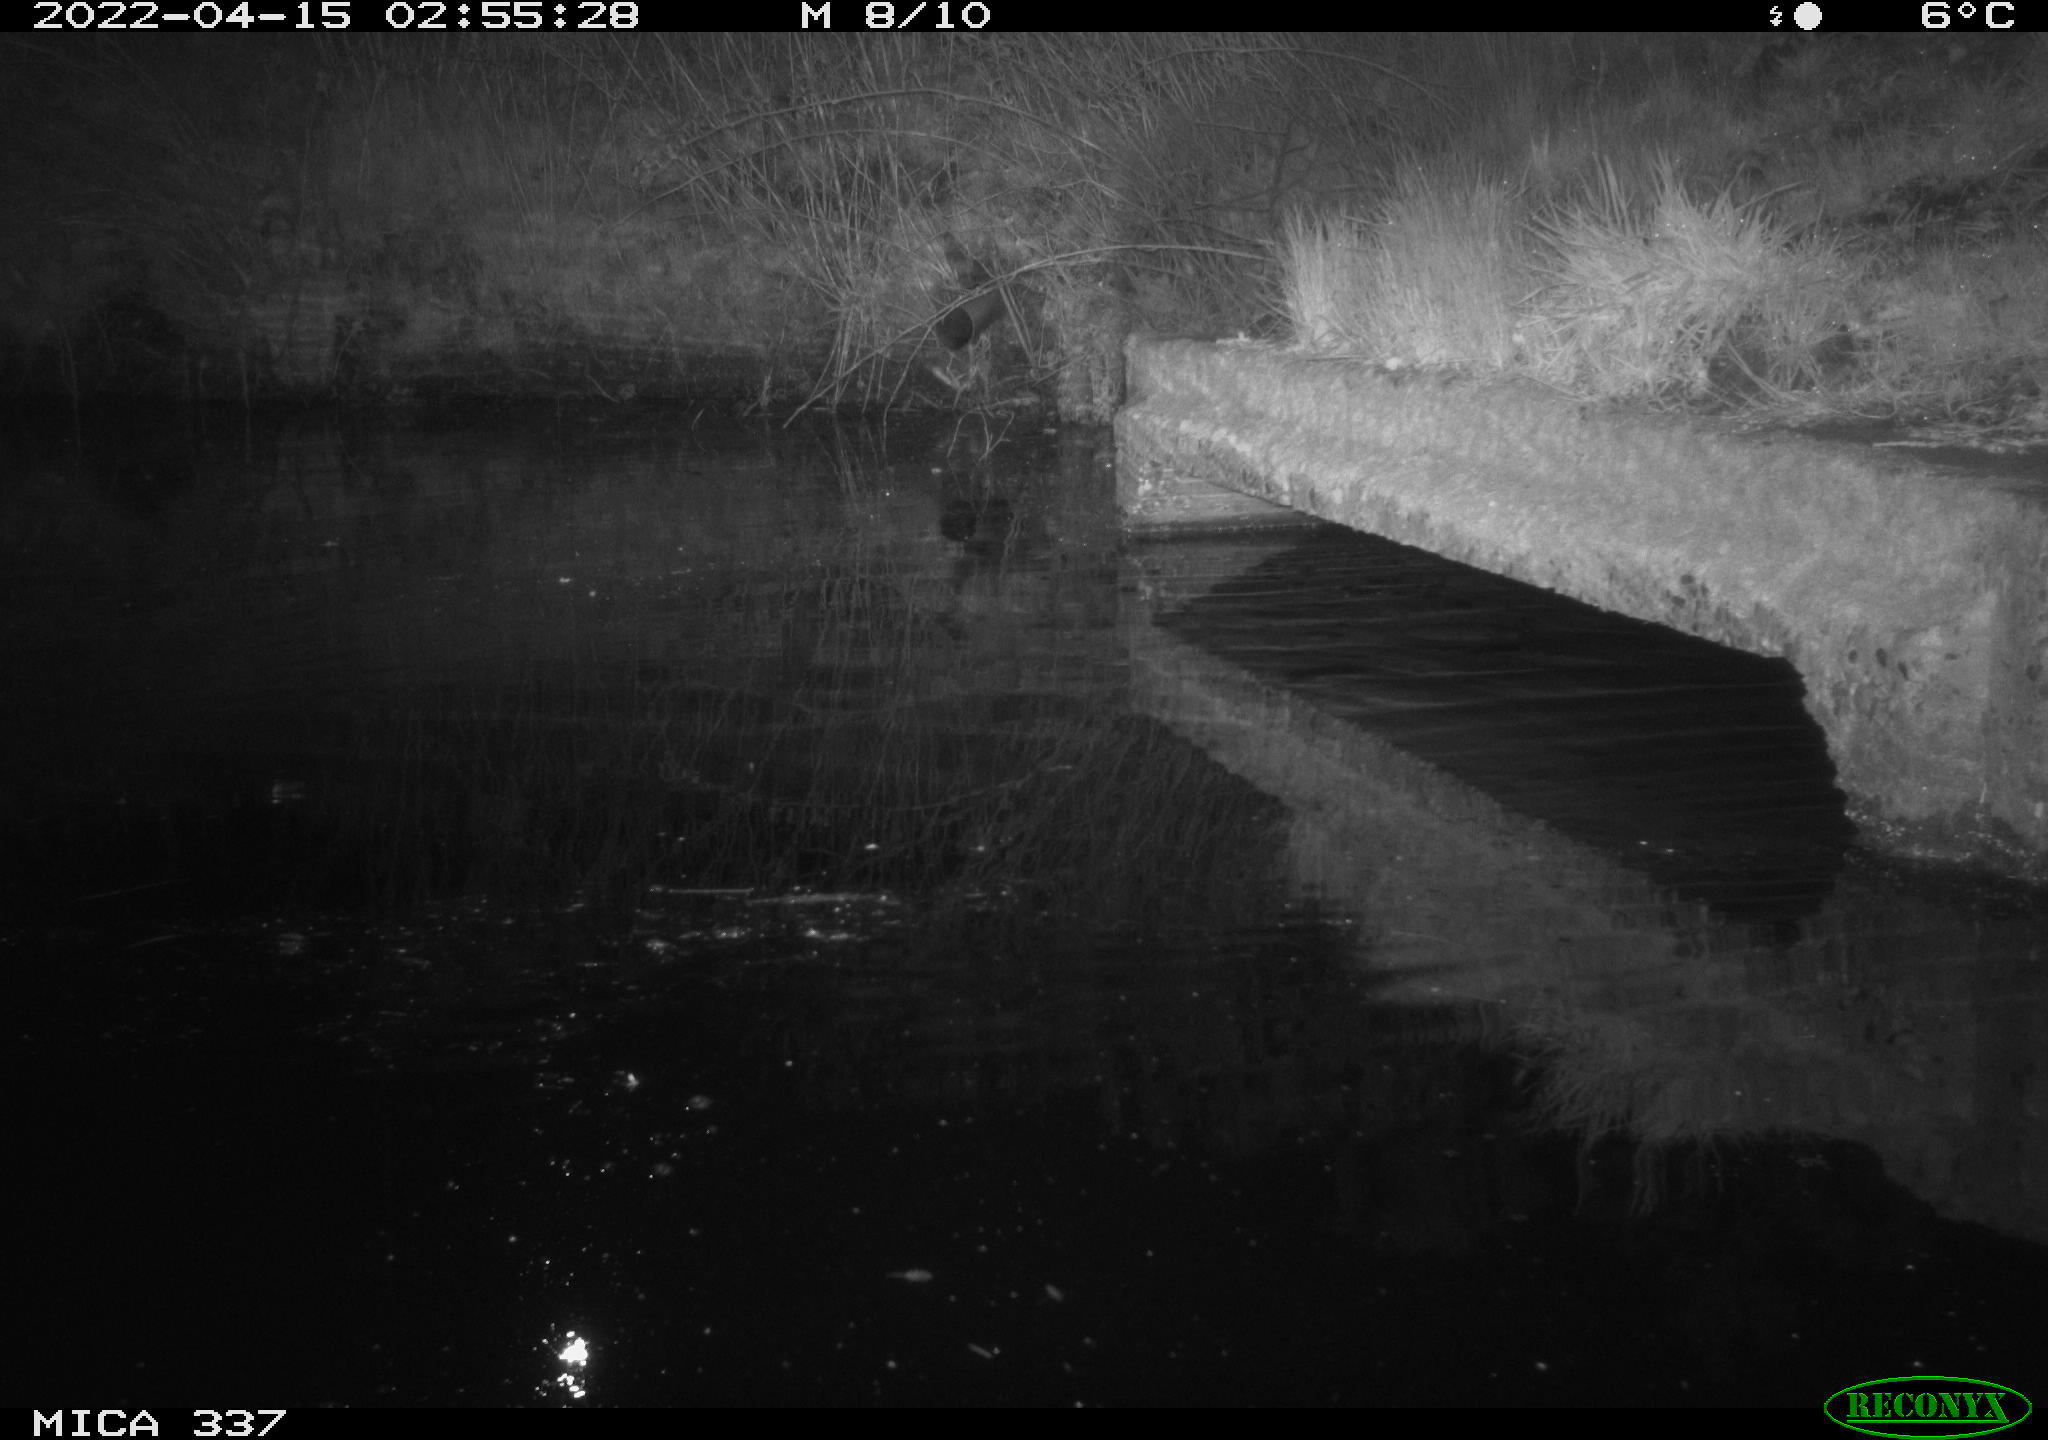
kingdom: Animalia
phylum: Chordata
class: Aves
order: Gruiformes
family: Rallidae
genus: Gallinula
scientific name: Gallinula chloropus
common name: Common moorhen
